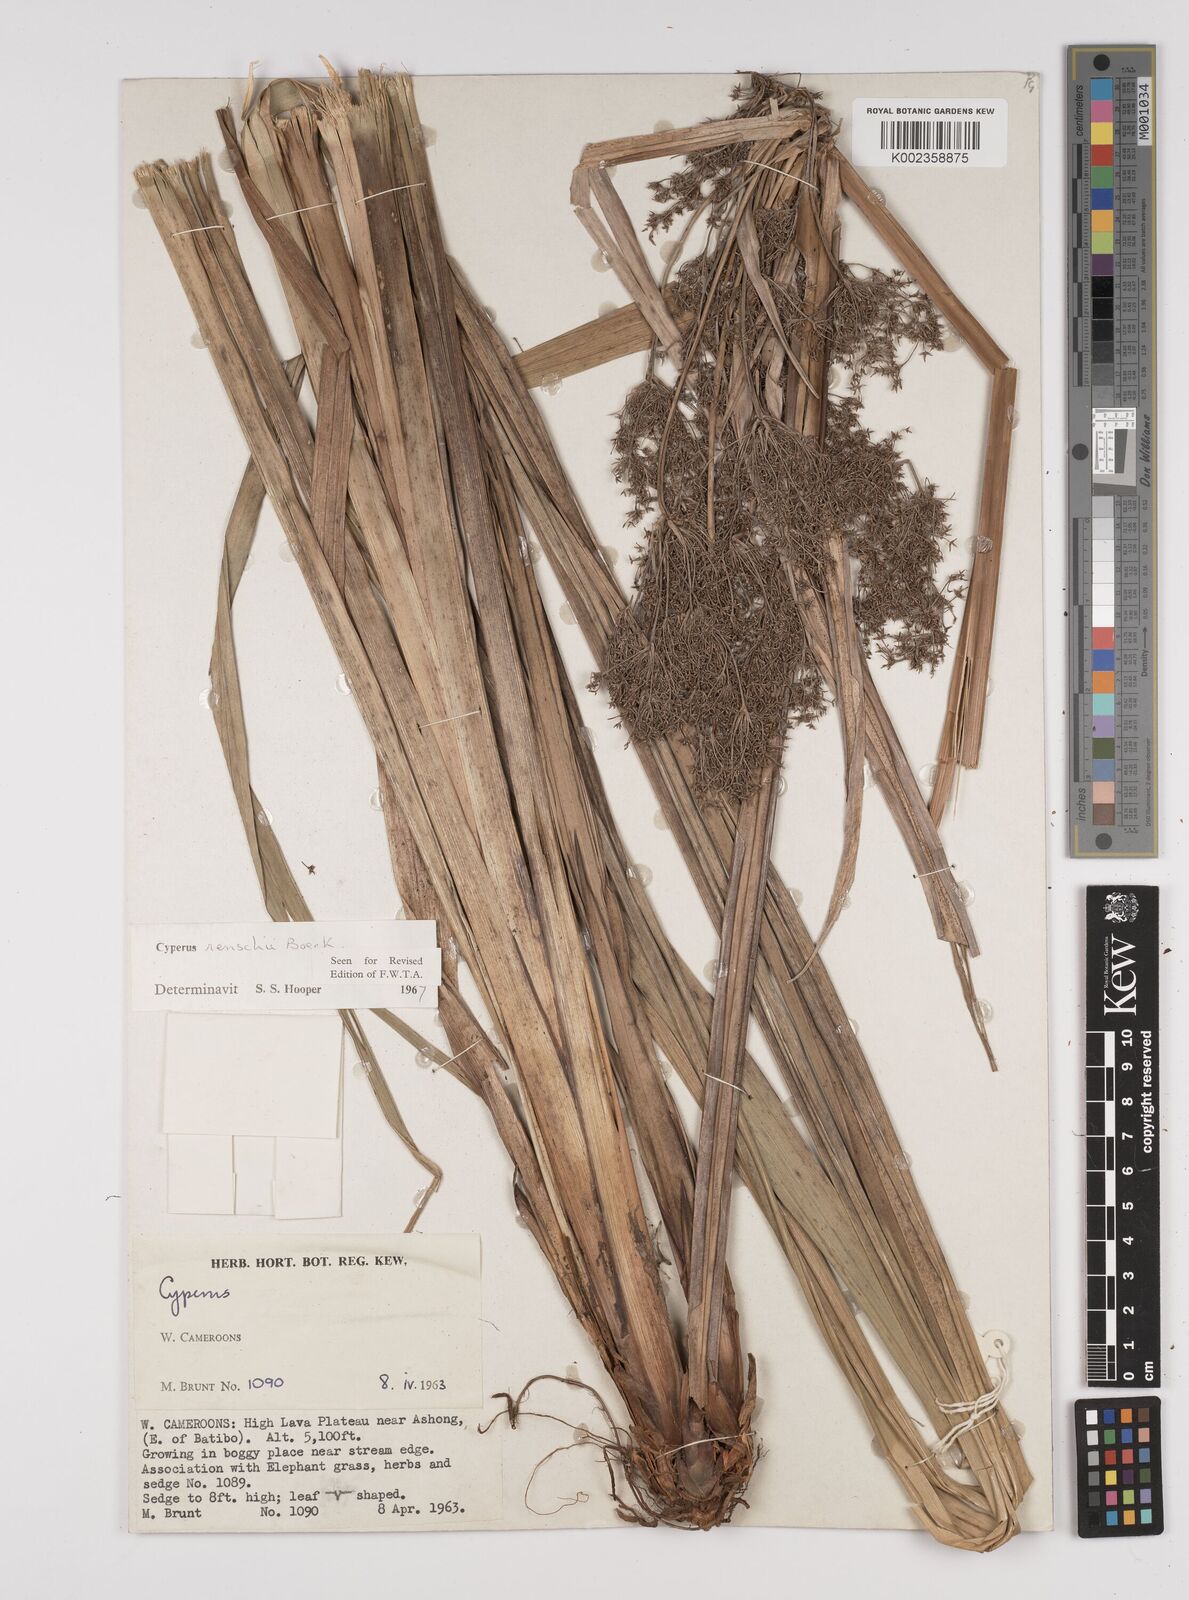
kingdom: Plantae
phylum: Tracheophyta
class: Liliopsida
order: Poales
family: Cyperaceae
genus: Cyperus
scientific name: Cyperus renschii
